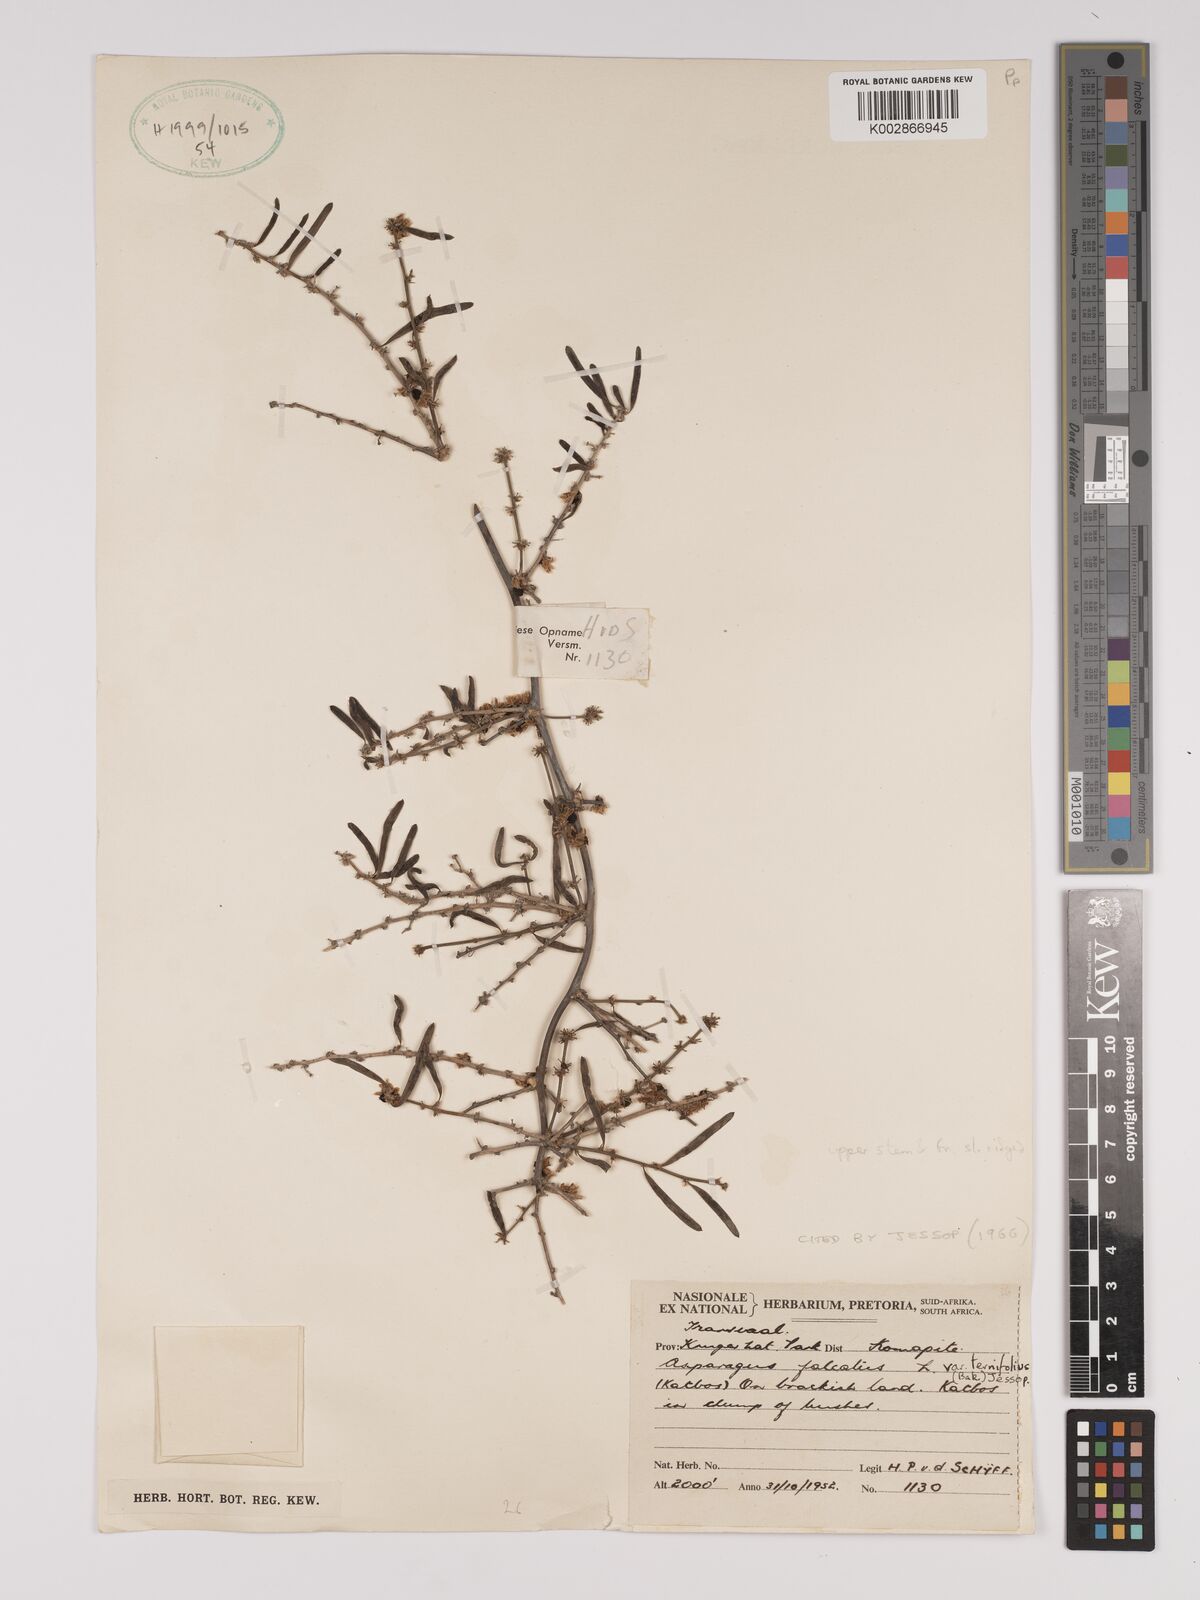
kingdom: Plantae
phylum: Tracheophyta
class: Liliopsida
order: Asparagales
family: Asparagaceae
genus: Asparagus
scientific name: Asparagus falcatus
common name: Asparagus
